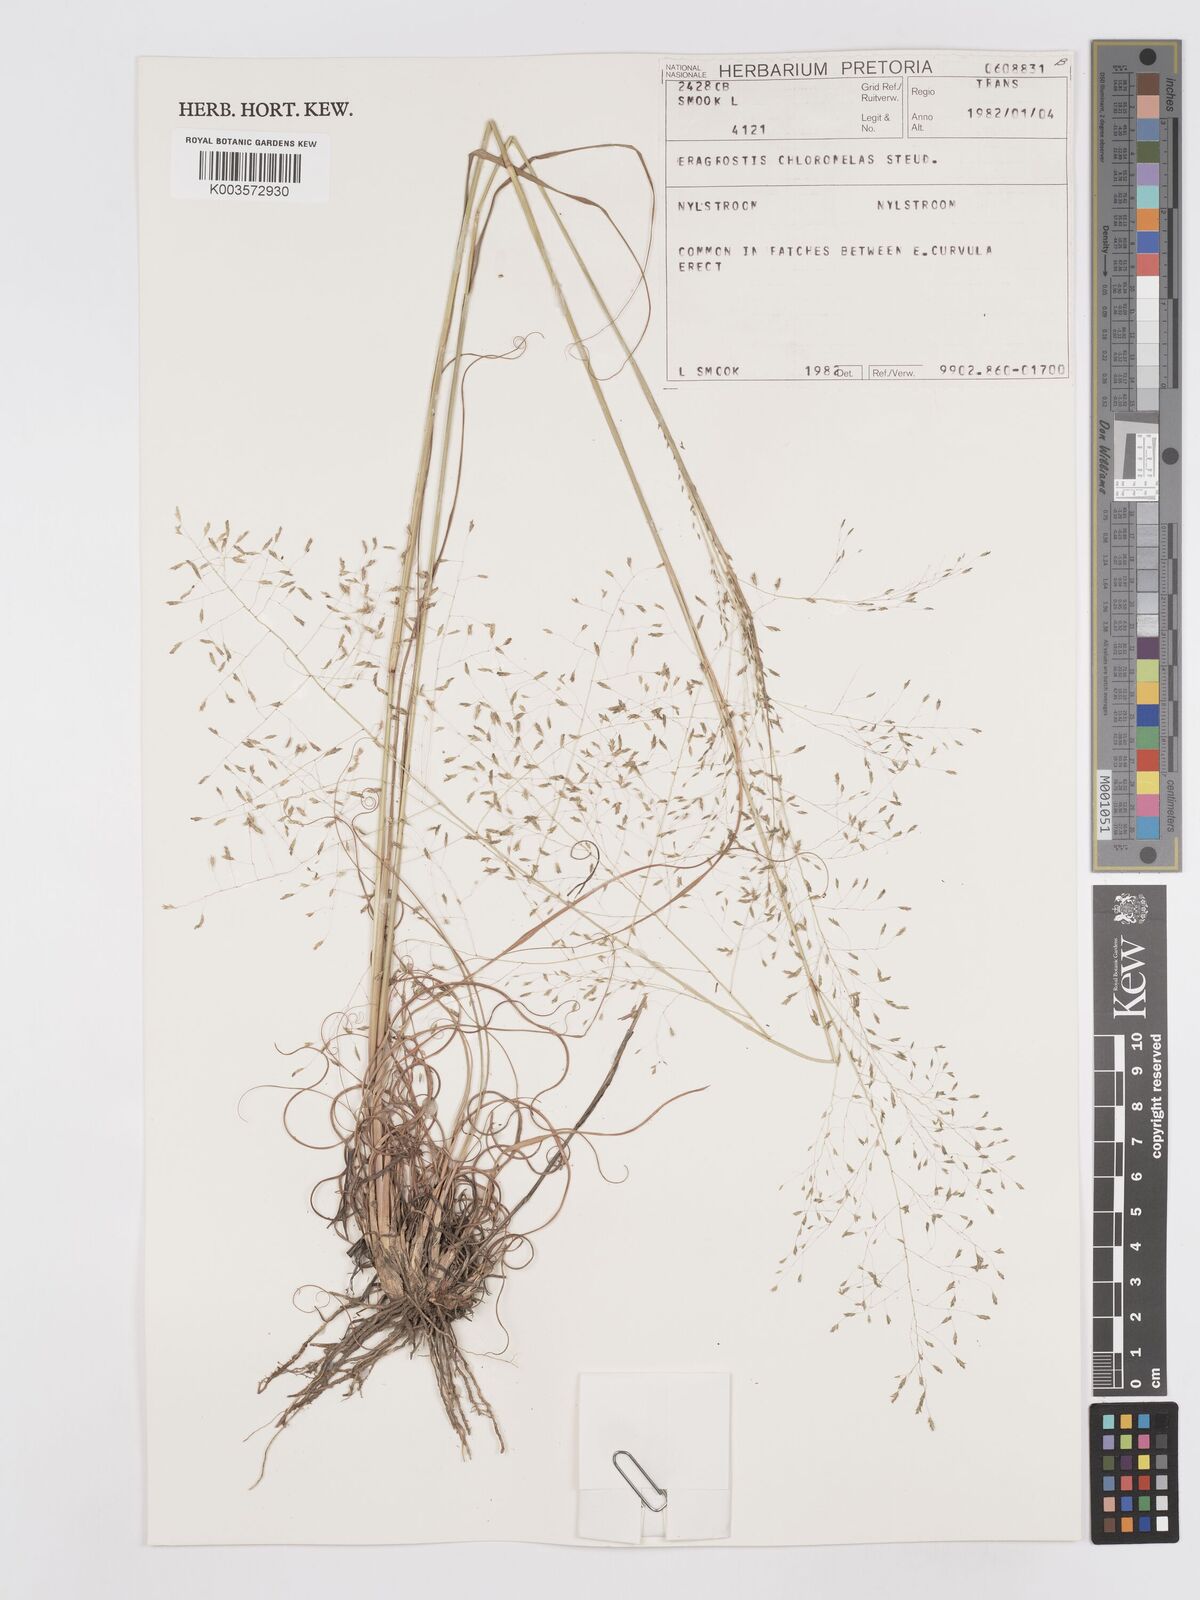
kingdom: Plantae
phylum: Tracheophyta
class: Liliopsida
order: Poales
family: Poaceae
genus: Eragrostis
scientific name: Eragrostis curvula
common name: African love-grass
